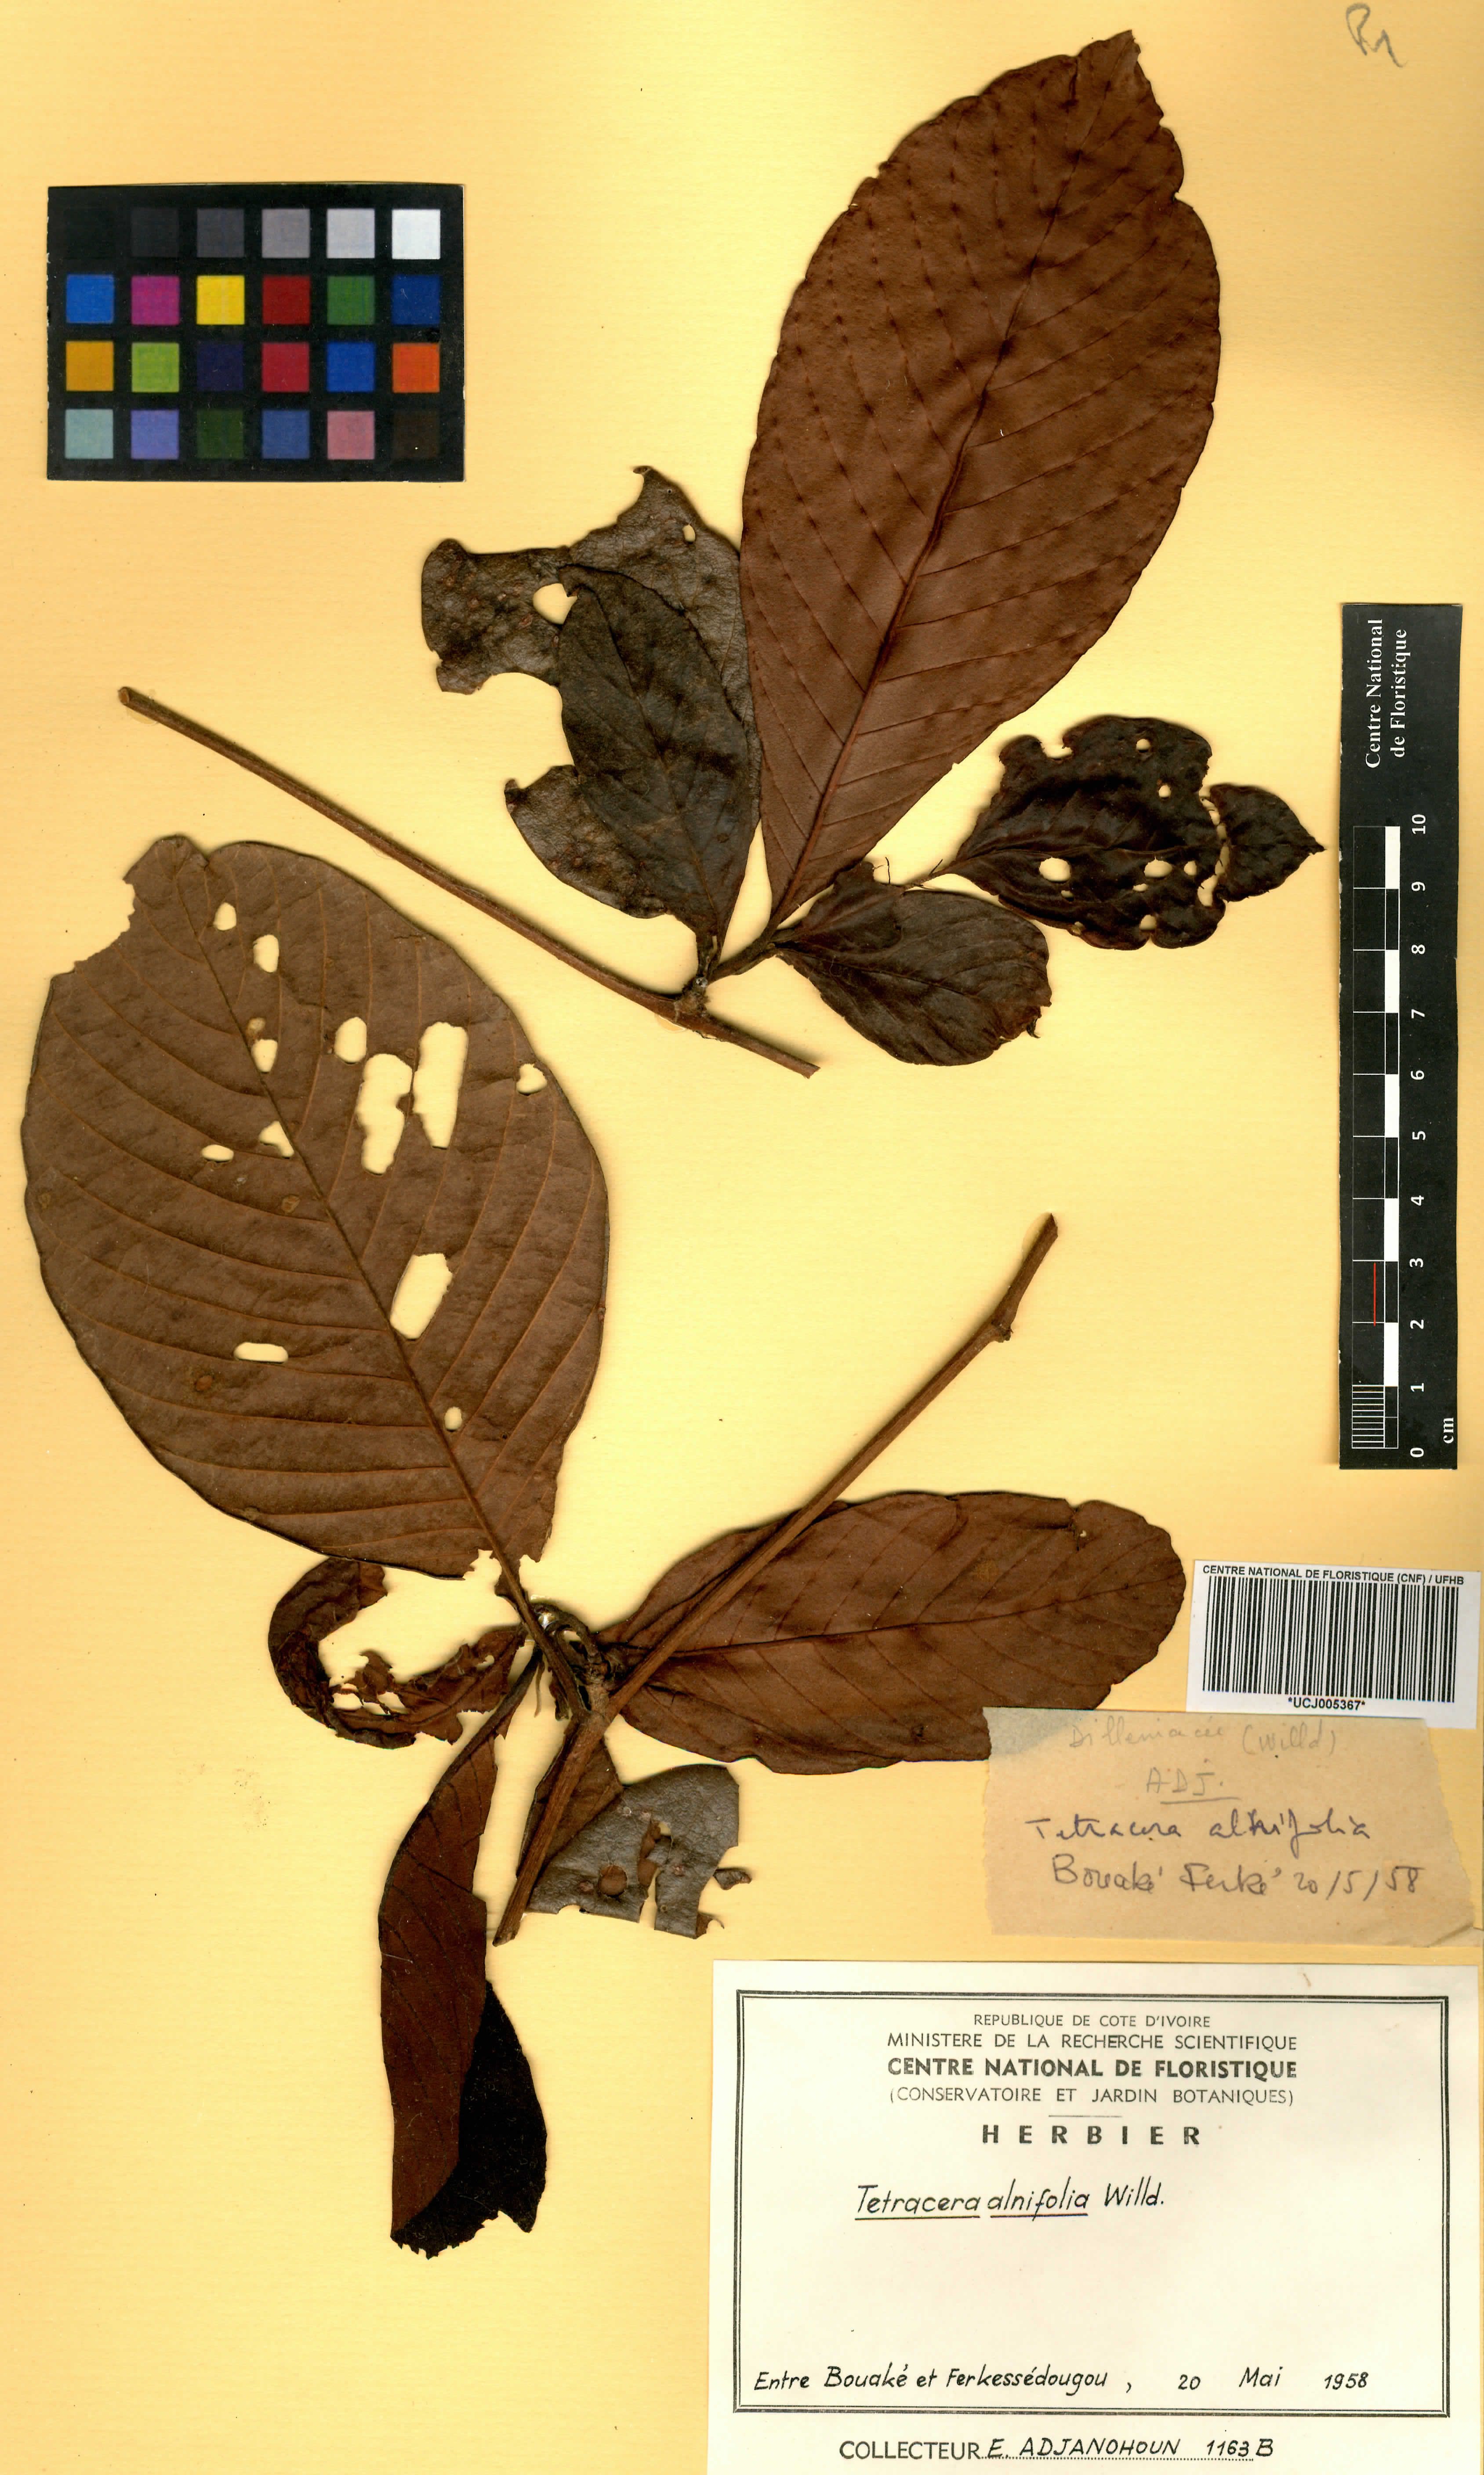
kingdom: Plantae
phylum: Tracheophyta
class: Magnoliopsida
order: Dilleniales
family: Dilleniaceae
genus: Tetracera
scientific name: Tetracera alnifolia
